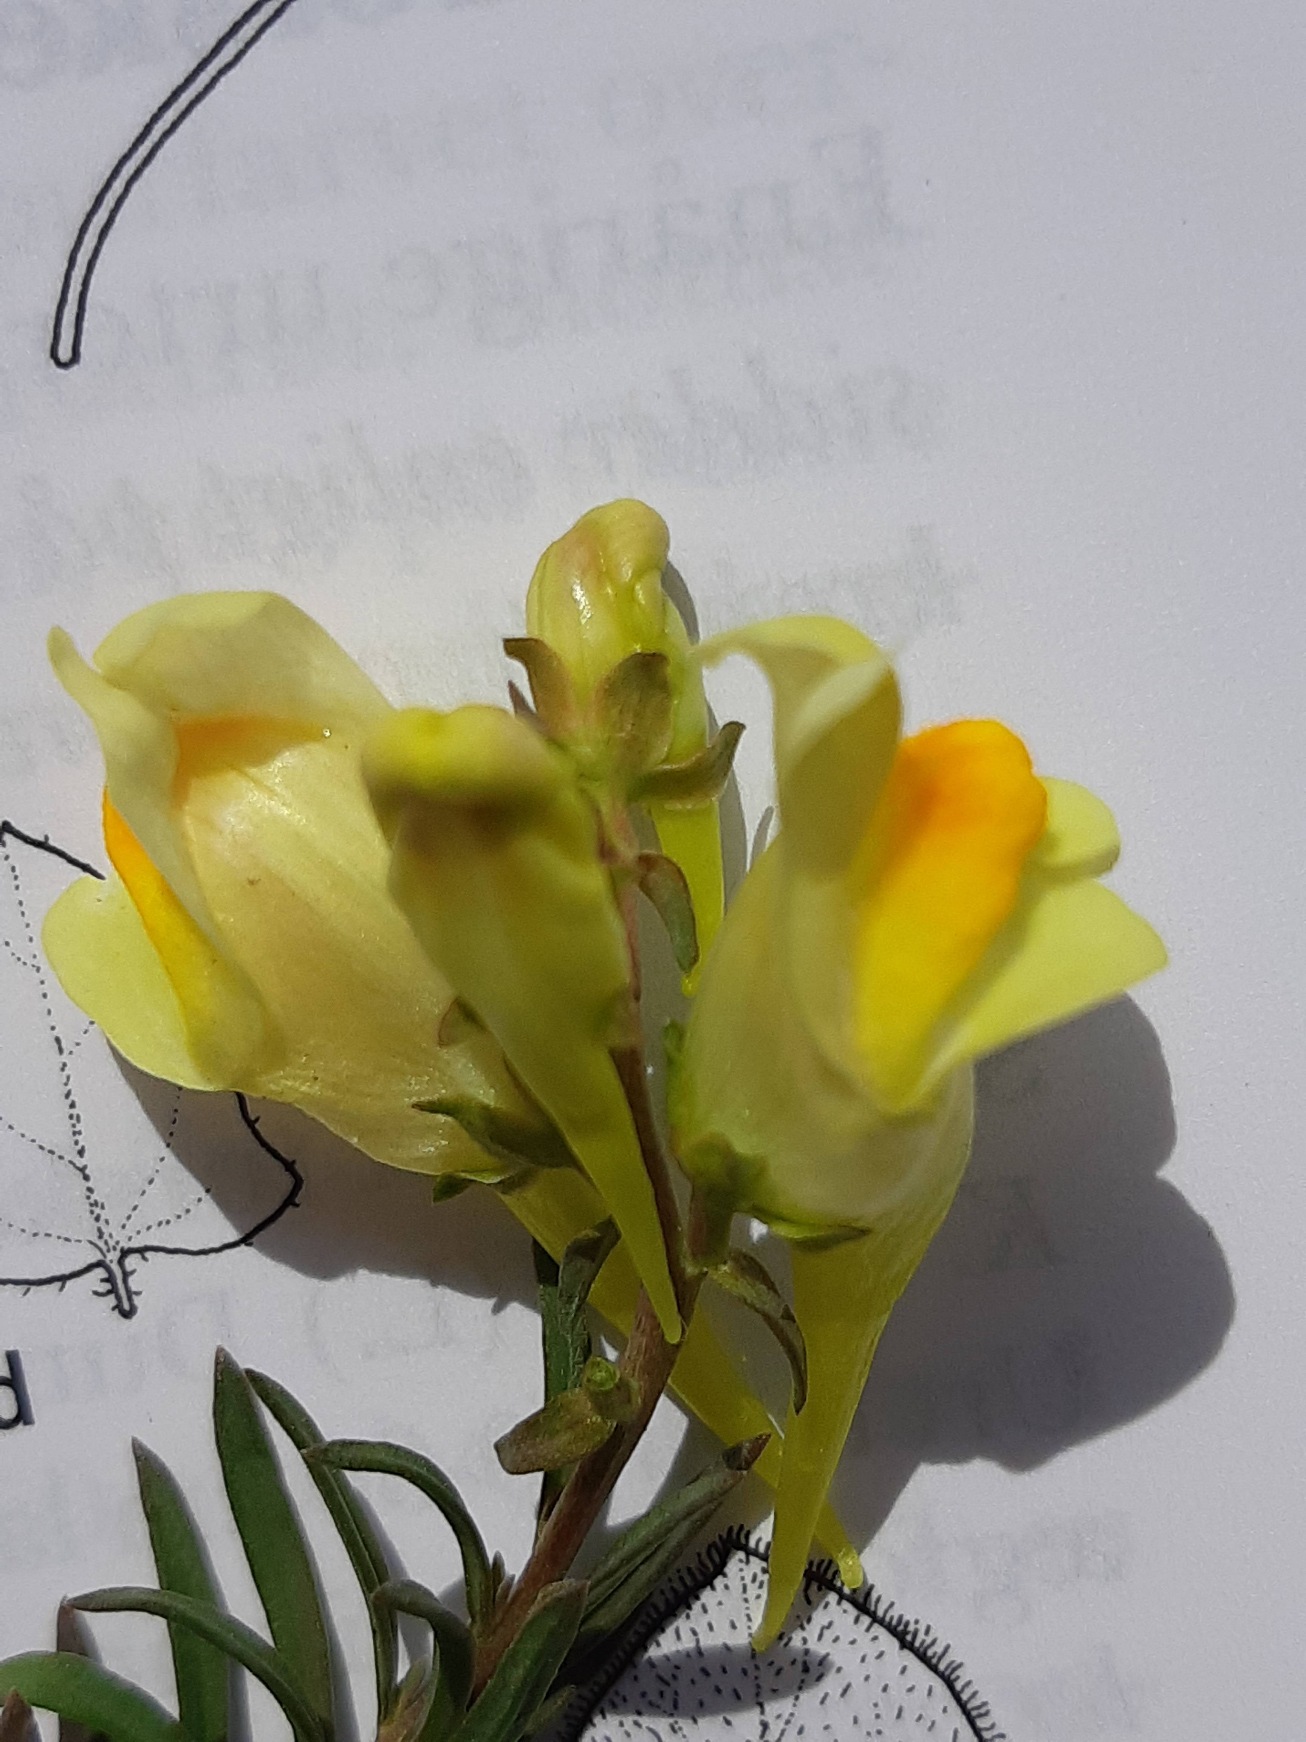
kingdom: Plantae
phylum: Tracheophyta
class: Magnoliopsida
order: Lamiales
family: Plantaginaceae
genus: Linaria
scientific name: Linaria vulgaris
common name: Almindelig torskemund
